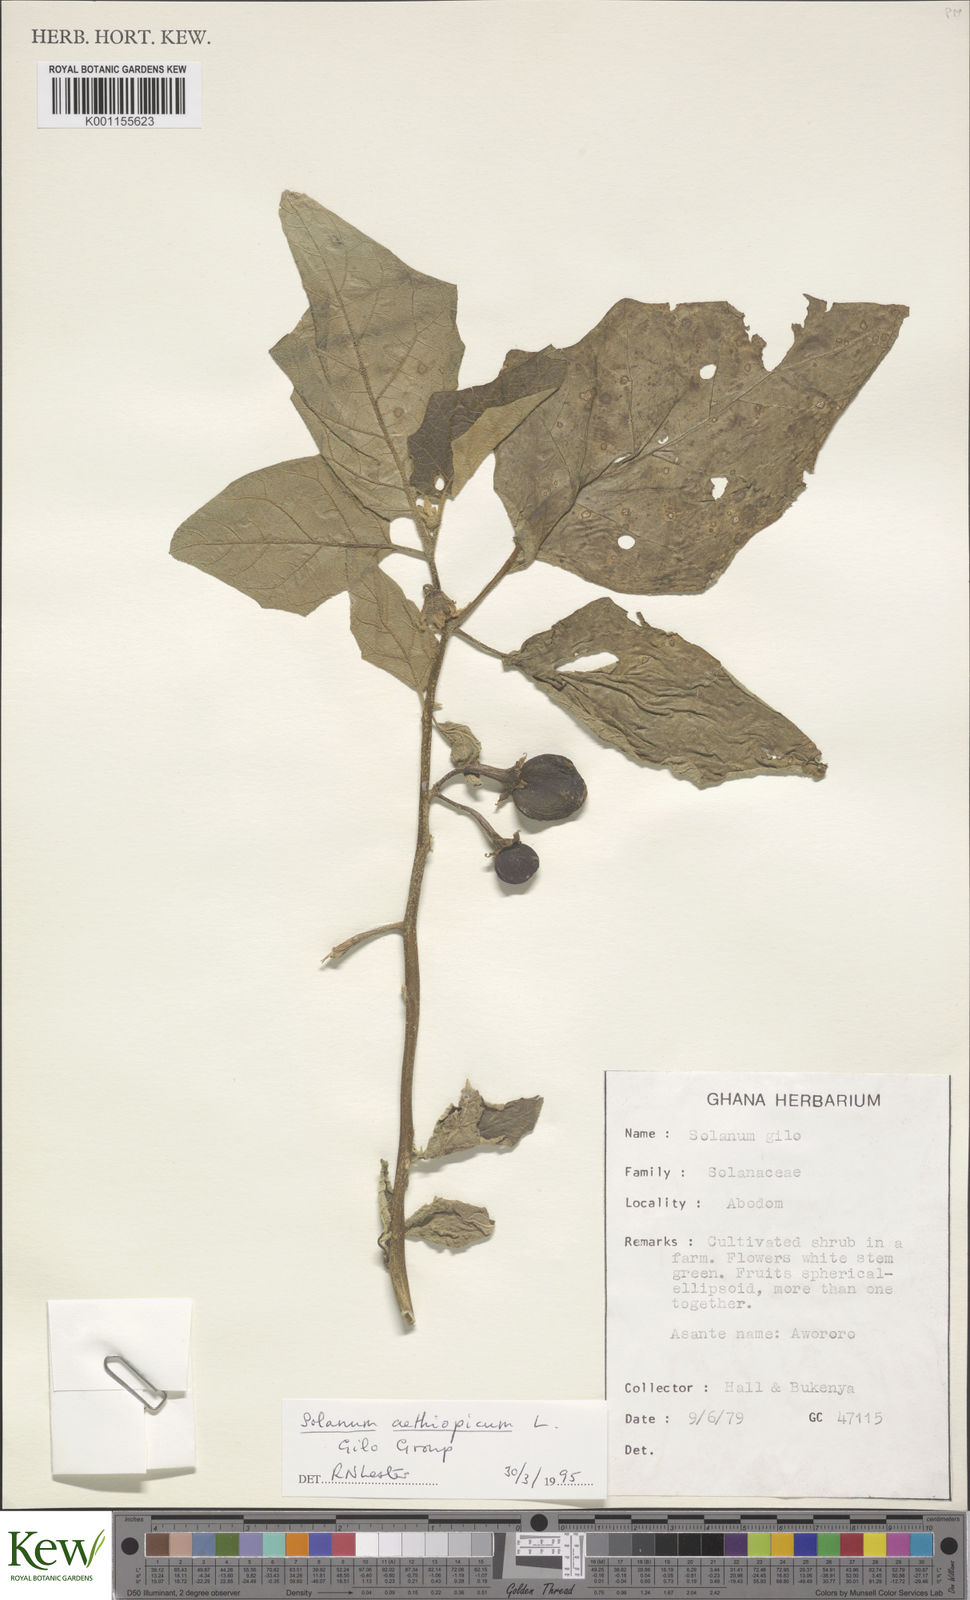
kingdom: Plantae
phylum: Tracheophyta
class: Magnoliopsida
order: Solanales
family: Solanaceae
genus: Solanum
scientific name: Solanum aethiopicum
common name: Gilo
